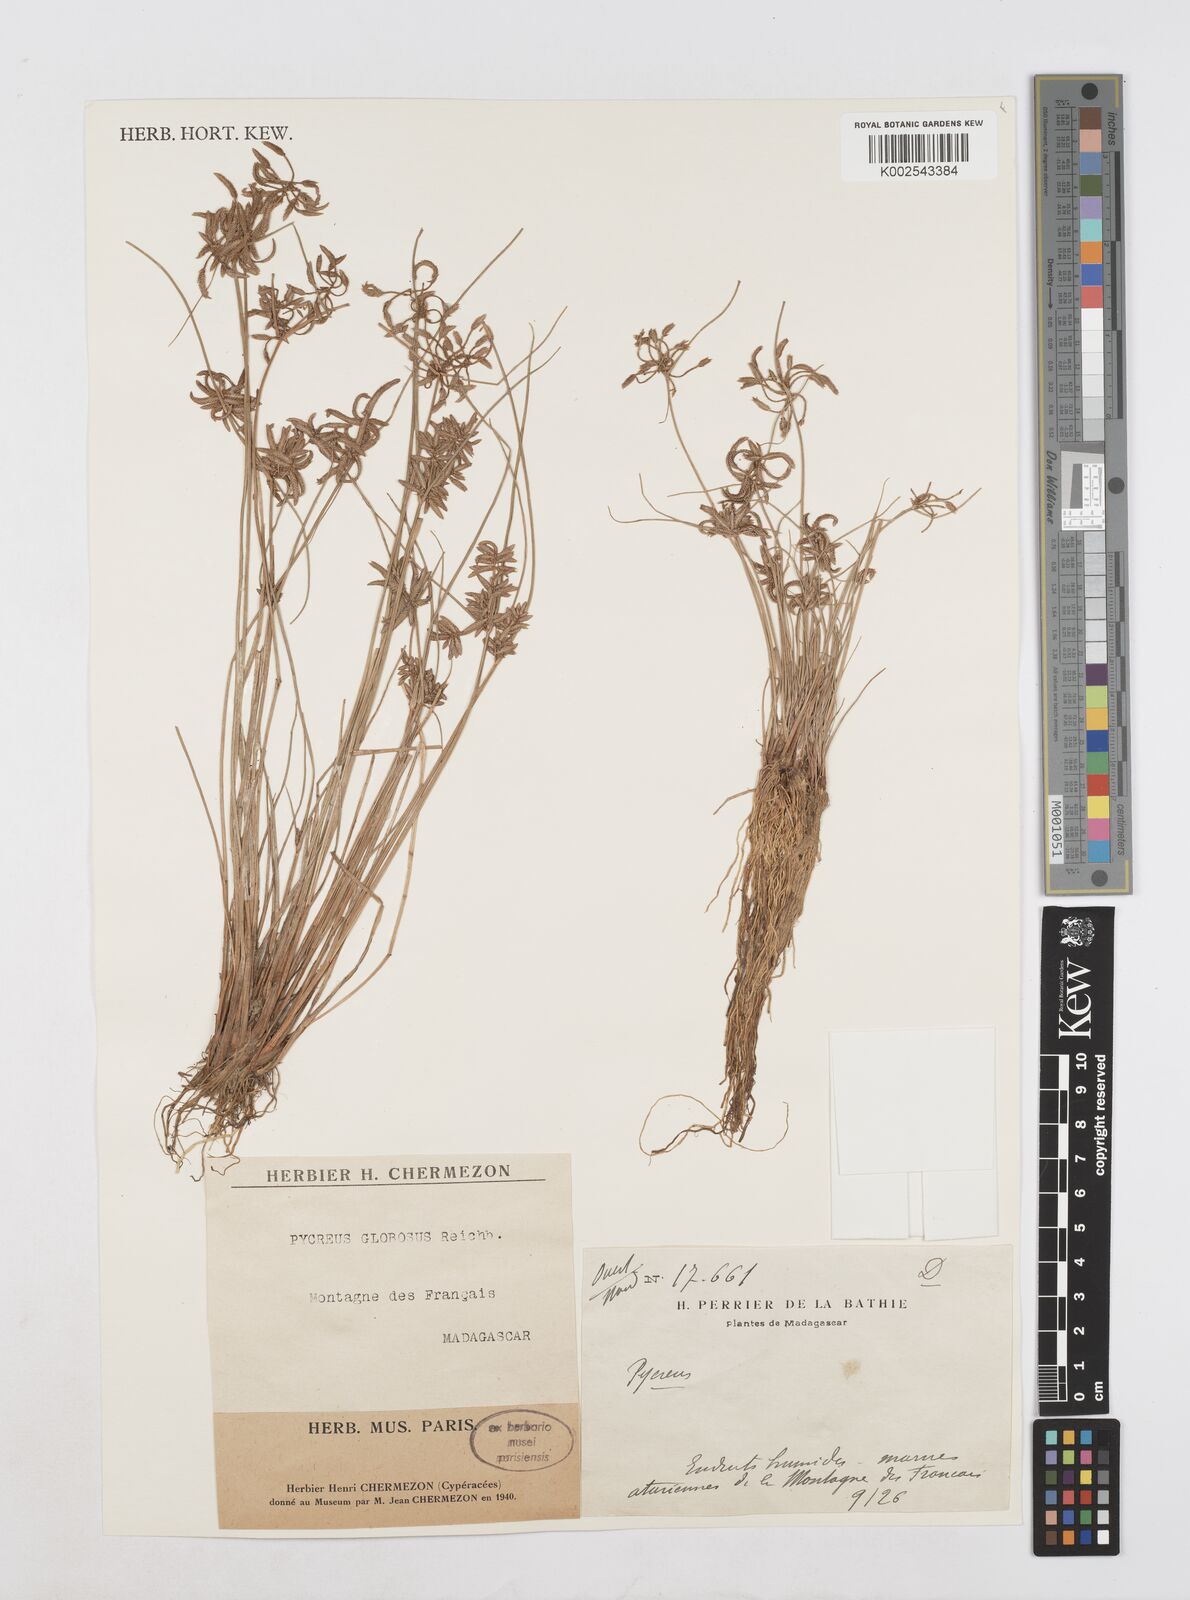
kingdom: Plantae
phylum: Tracheophyta
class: Liliopsida
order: Poales
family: Cyperaceae
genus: Cyperus
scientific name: Cyperus flavidus
